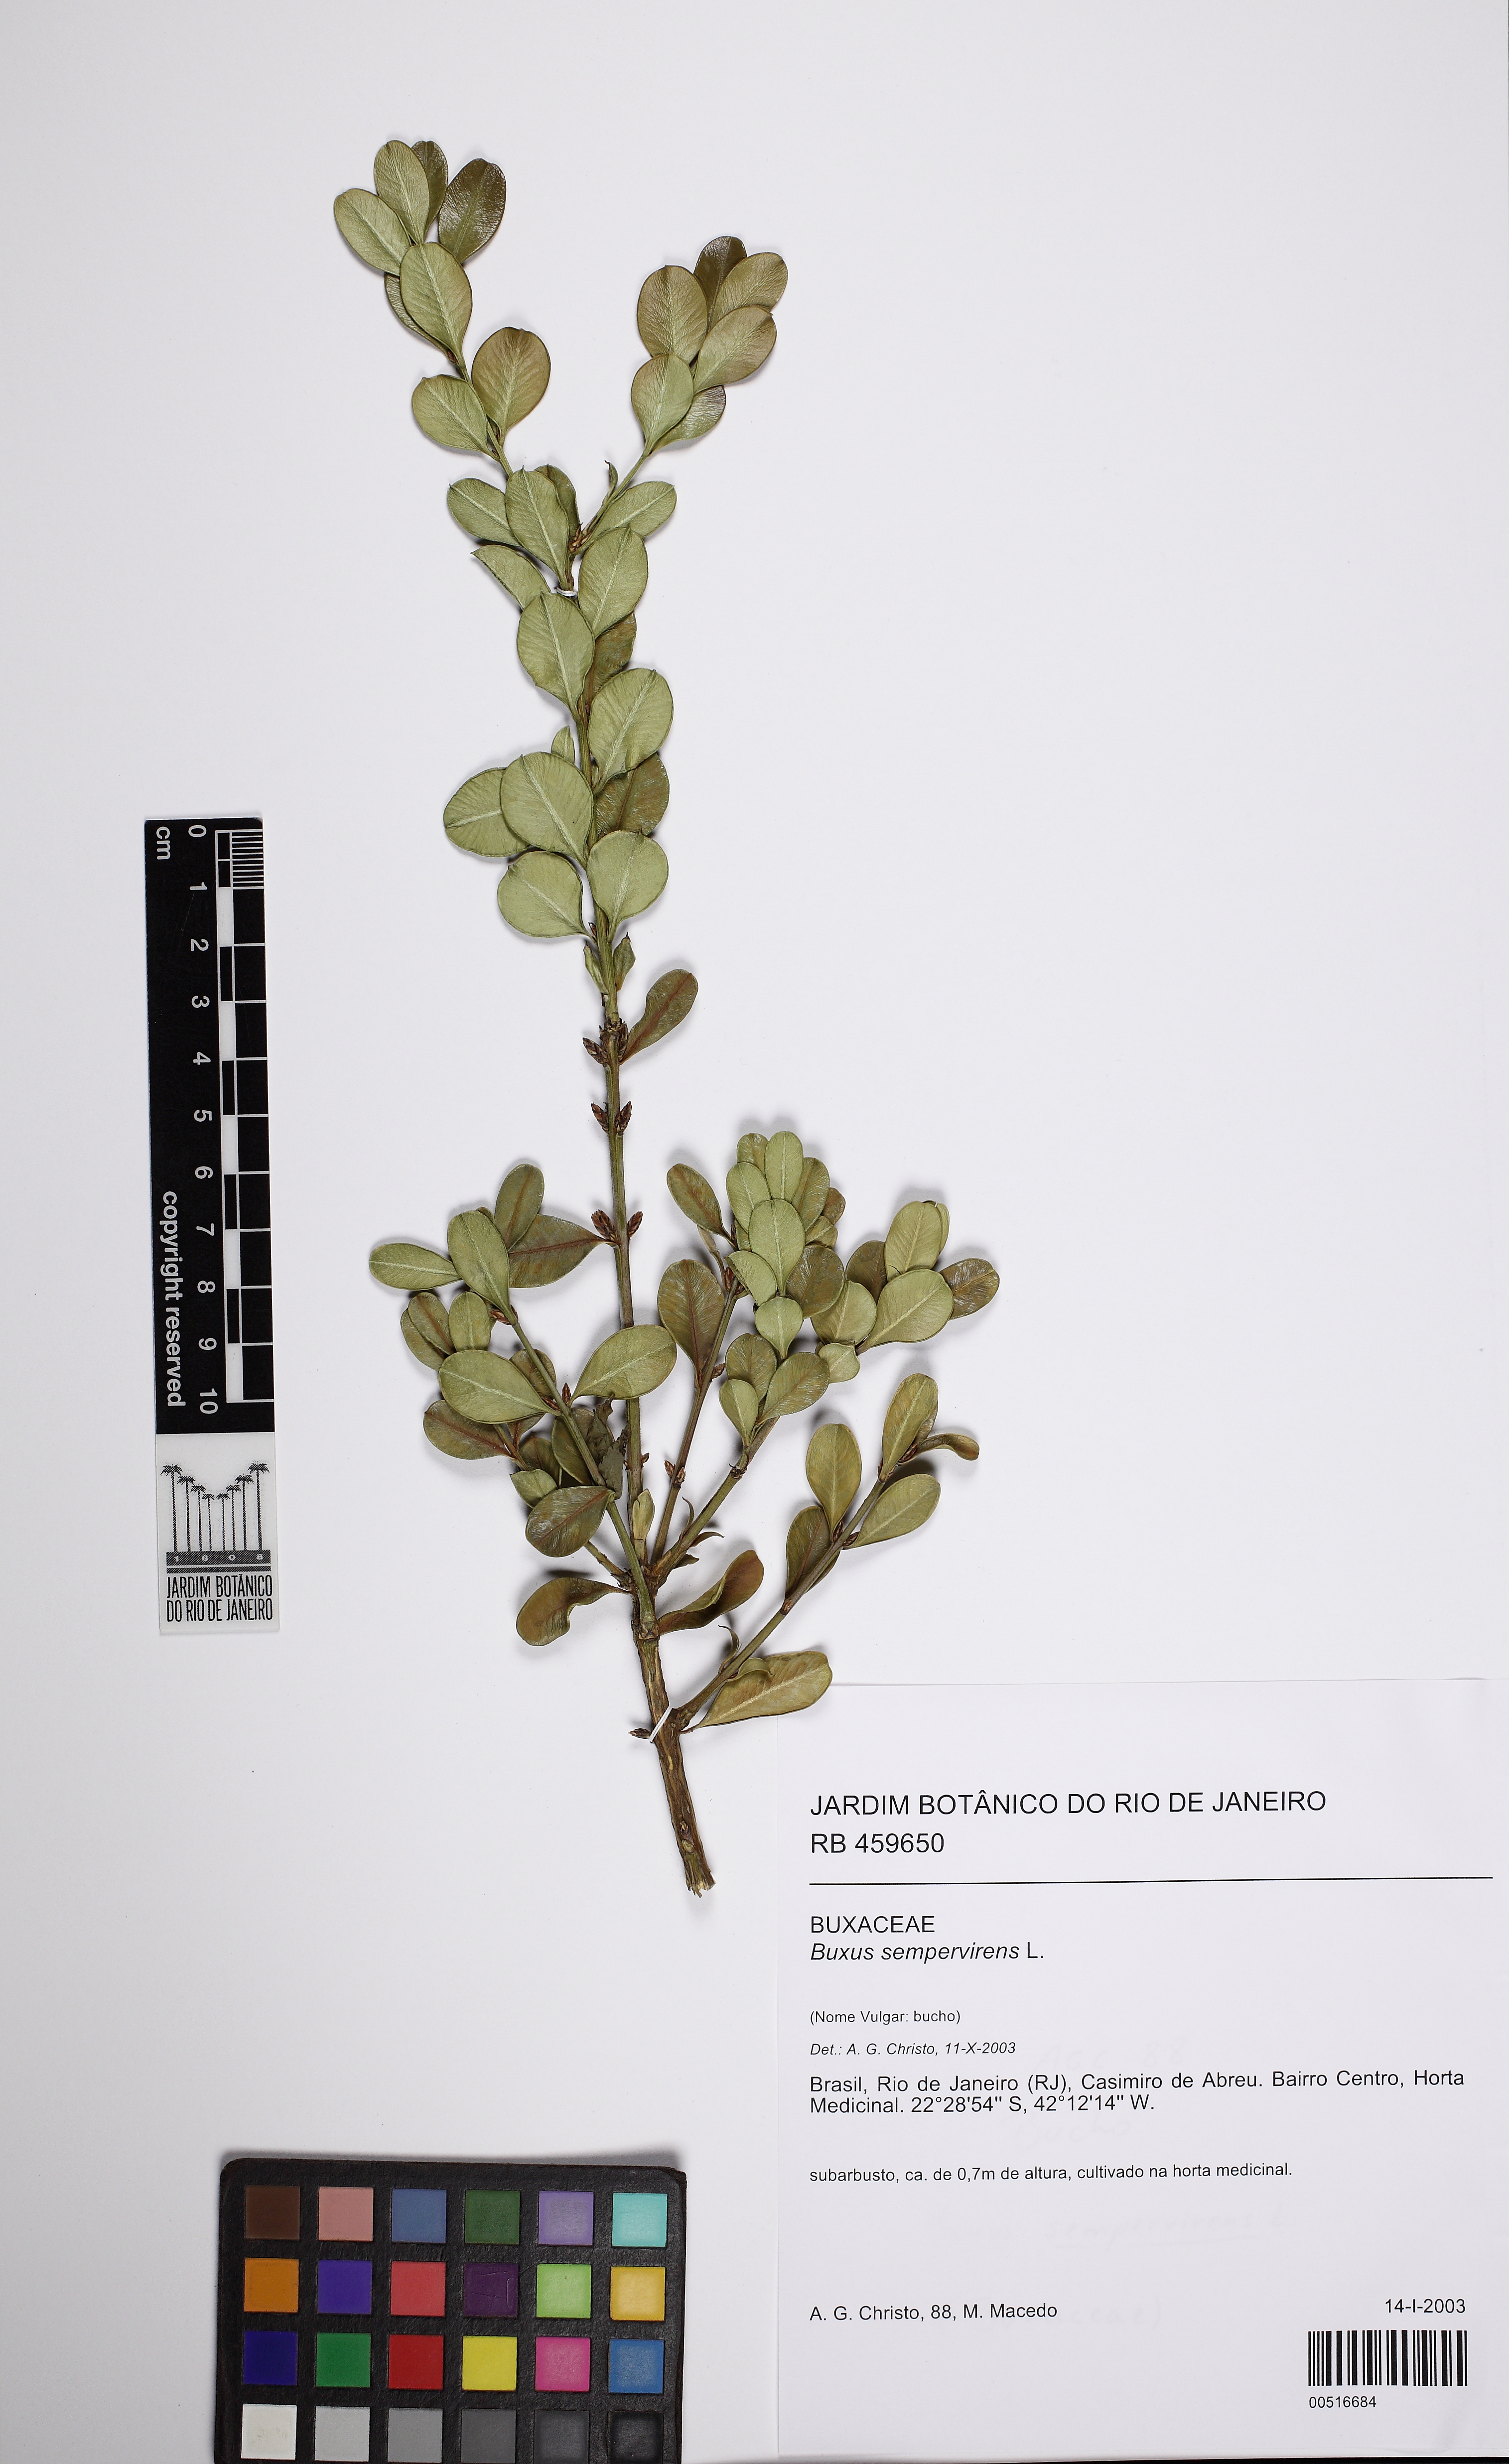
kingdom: Plantae
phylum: Tracheophyta
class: Magnoliopsida
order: Buxales
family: Buxaceae
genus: Buxus
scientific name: Buxus sempervirens
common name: Box
